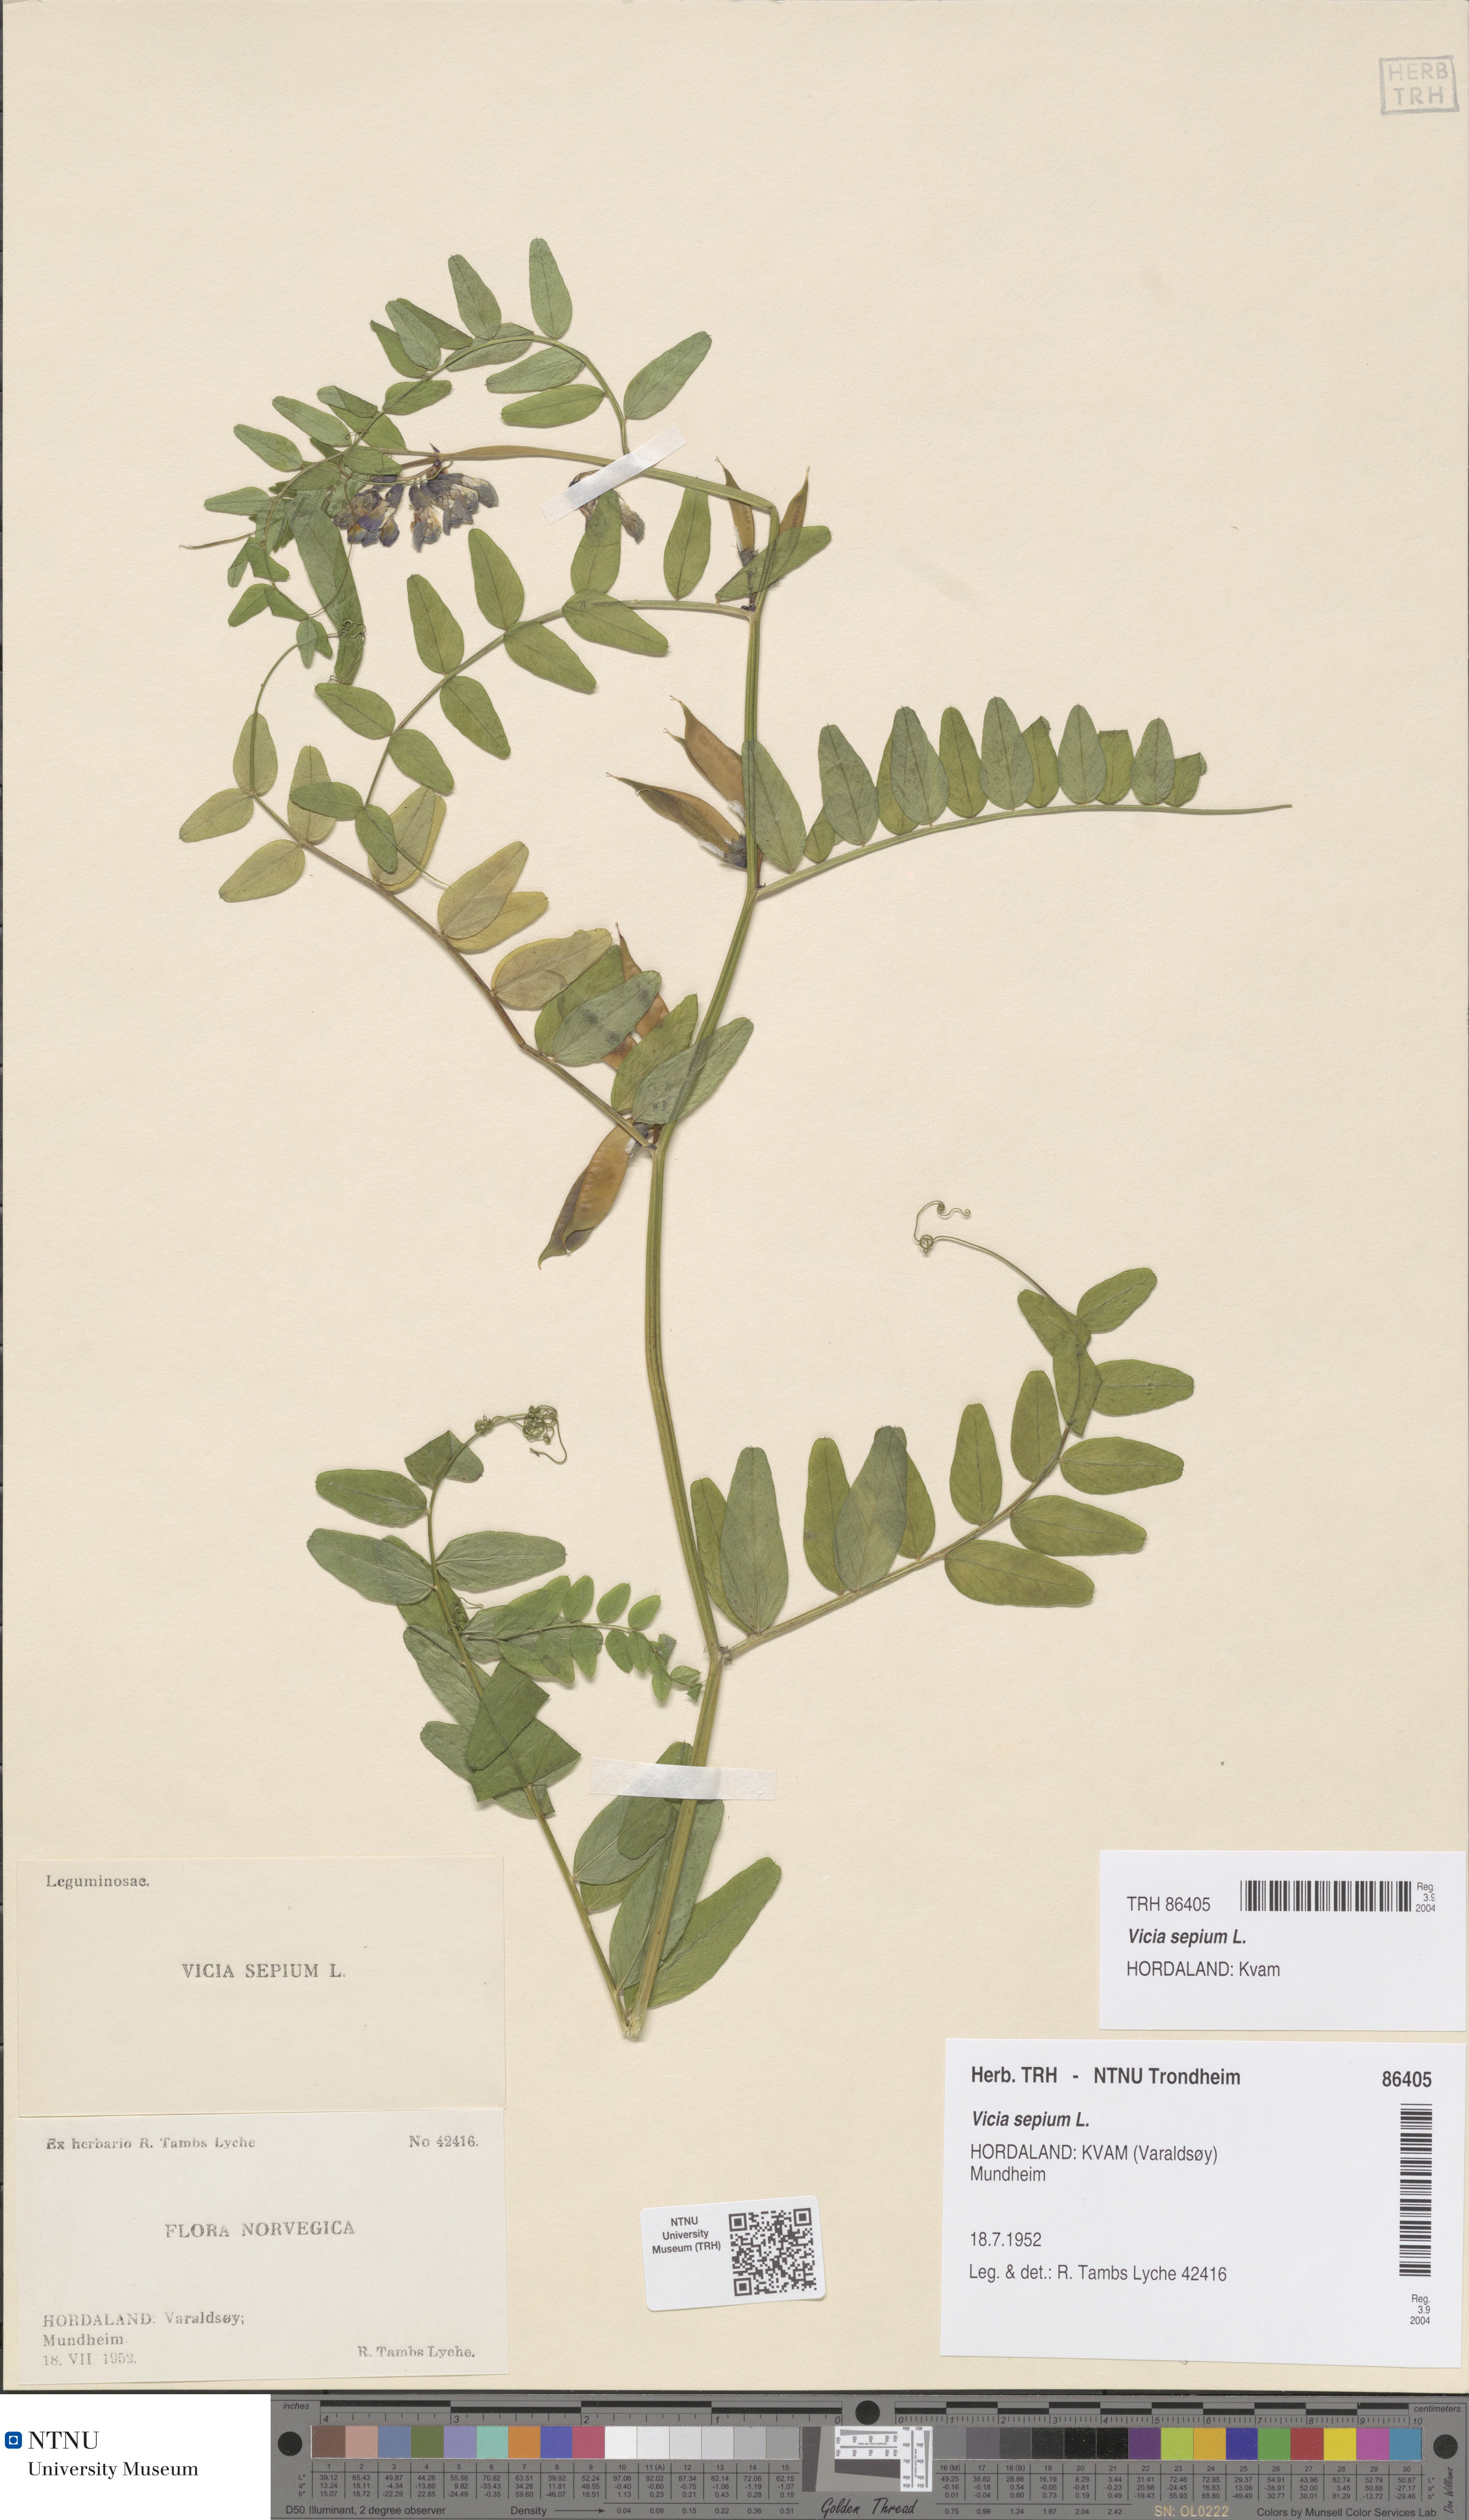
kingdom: Plantae
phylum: Tracheophyta
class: Magnoliopsida
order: Fabales
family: Fabaceae
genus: Vicia
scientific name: Vicia sepium
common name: Bush vetch
